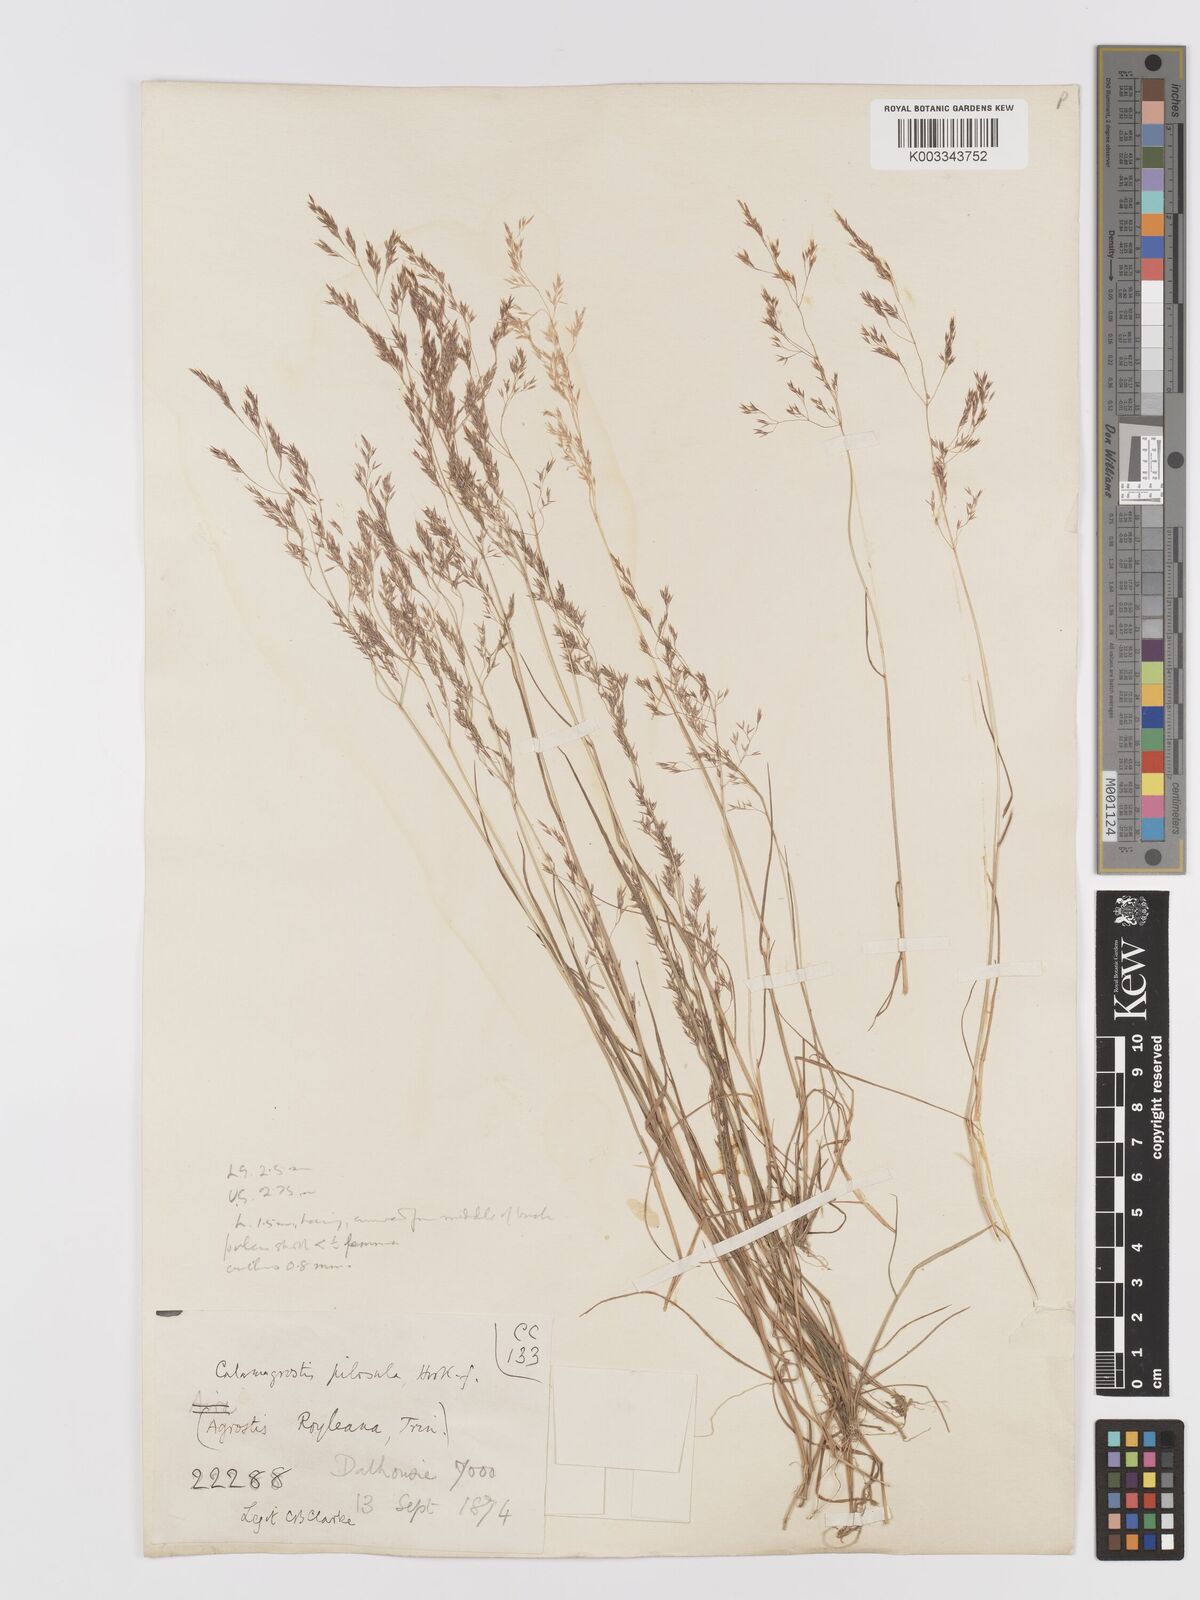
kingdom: Plantae
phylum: Tracheophyta
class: Liliopsida
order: Poales
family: Poaceae
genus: Agrostis
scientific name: Agrostis pilosula
